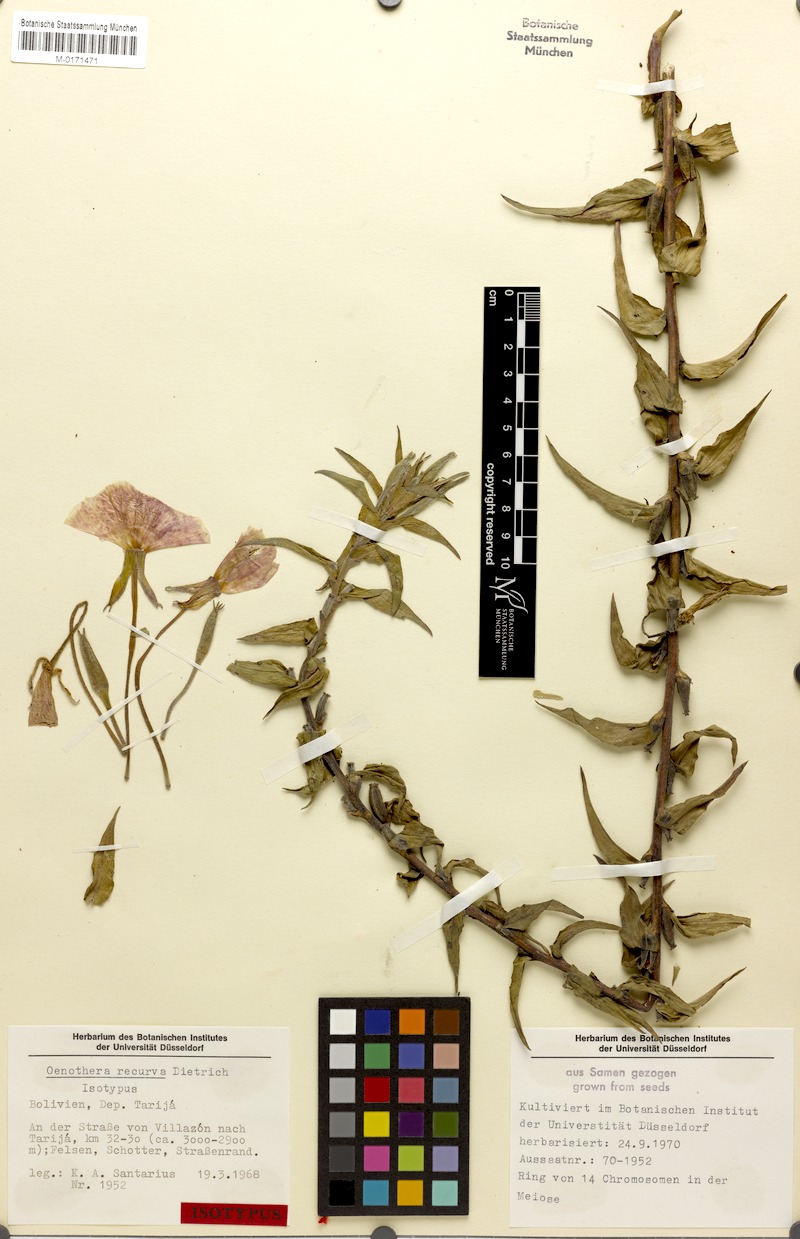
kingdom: Plantae
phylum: Tracheophyta
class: Magnoliopsida
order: Myrtales
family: Onagraceae
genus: Oenothera
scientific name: Oenothera recurva
